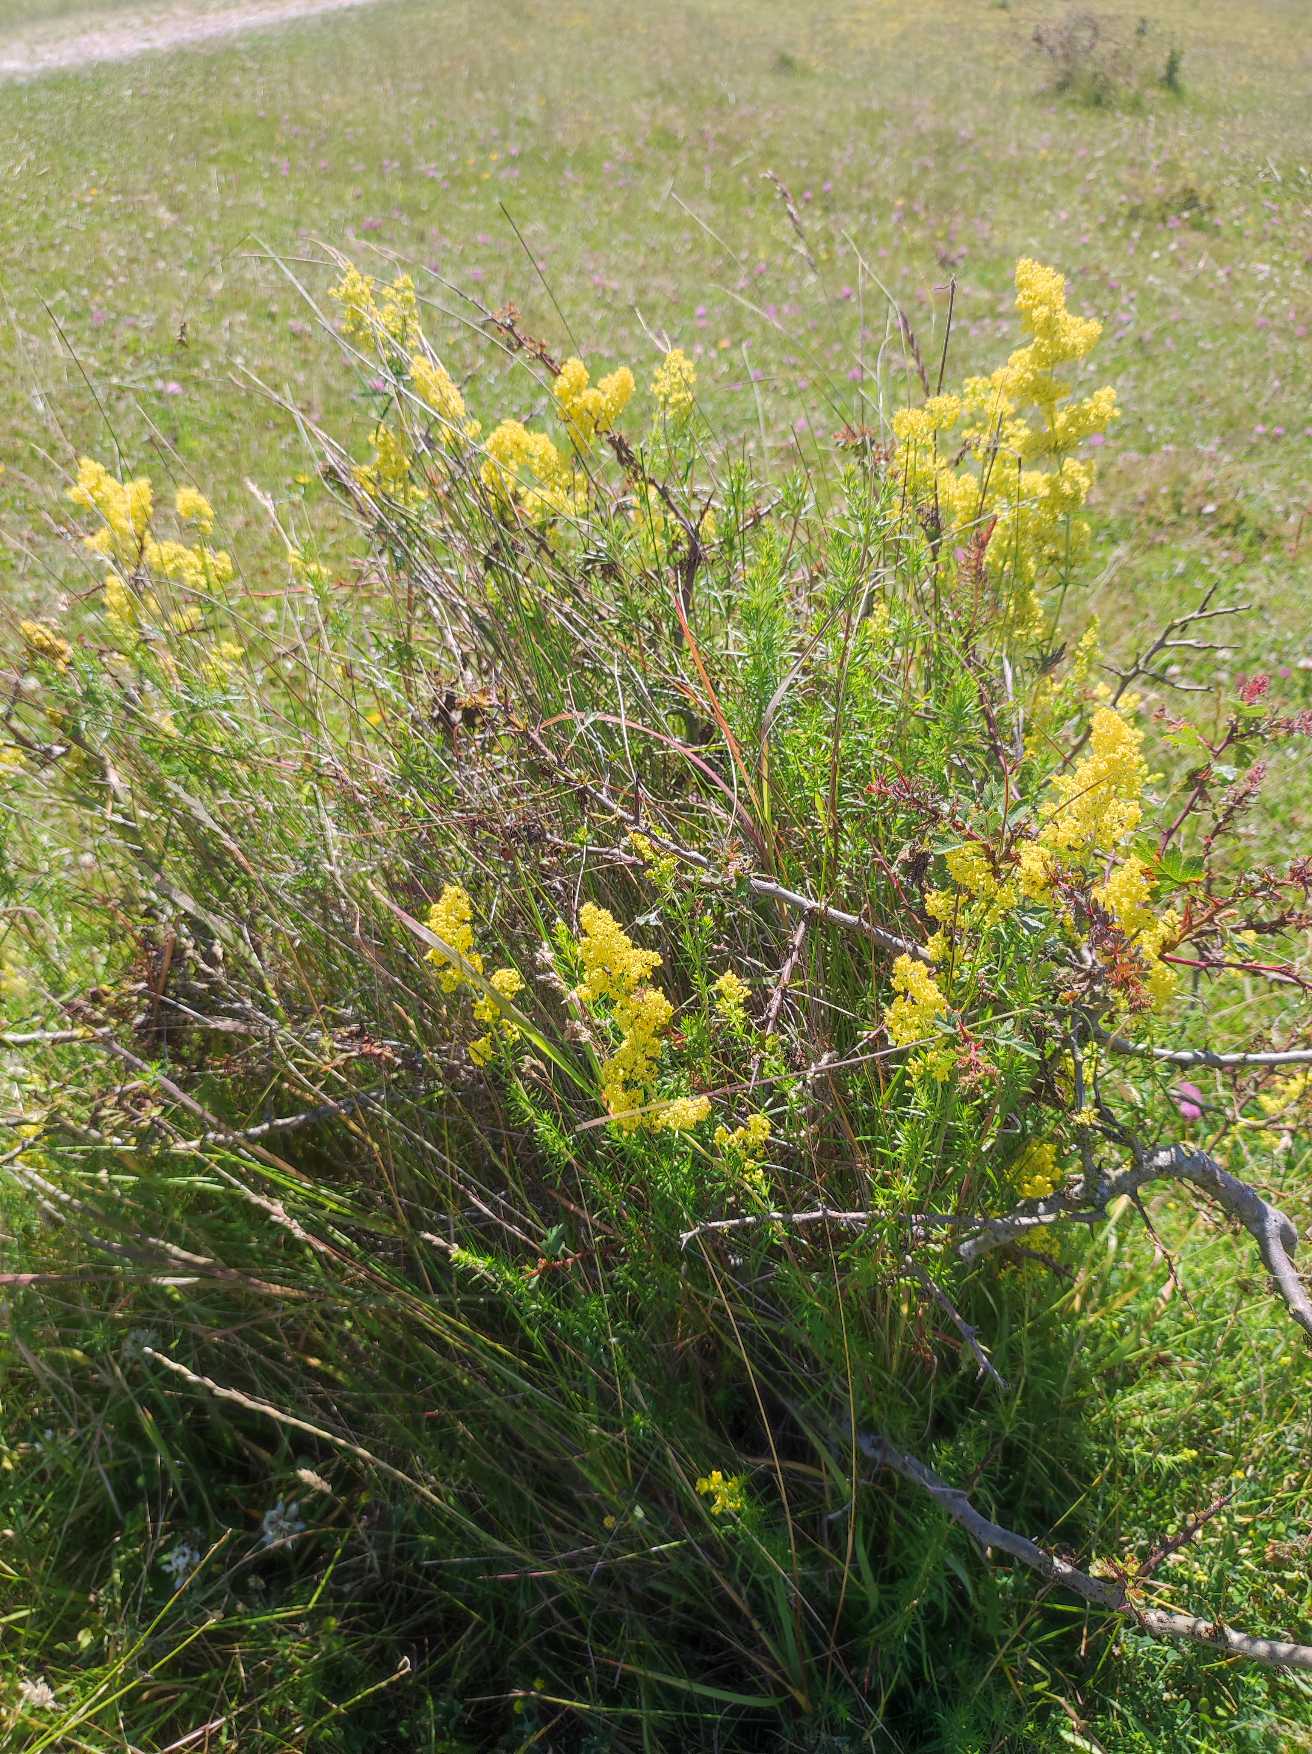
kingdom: Plantae
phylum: Tracheophyta
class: Magnoliopsida
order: Gentianales
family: Rubiaceae
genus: Galium
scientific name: Galium verum
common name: Gul snerre
